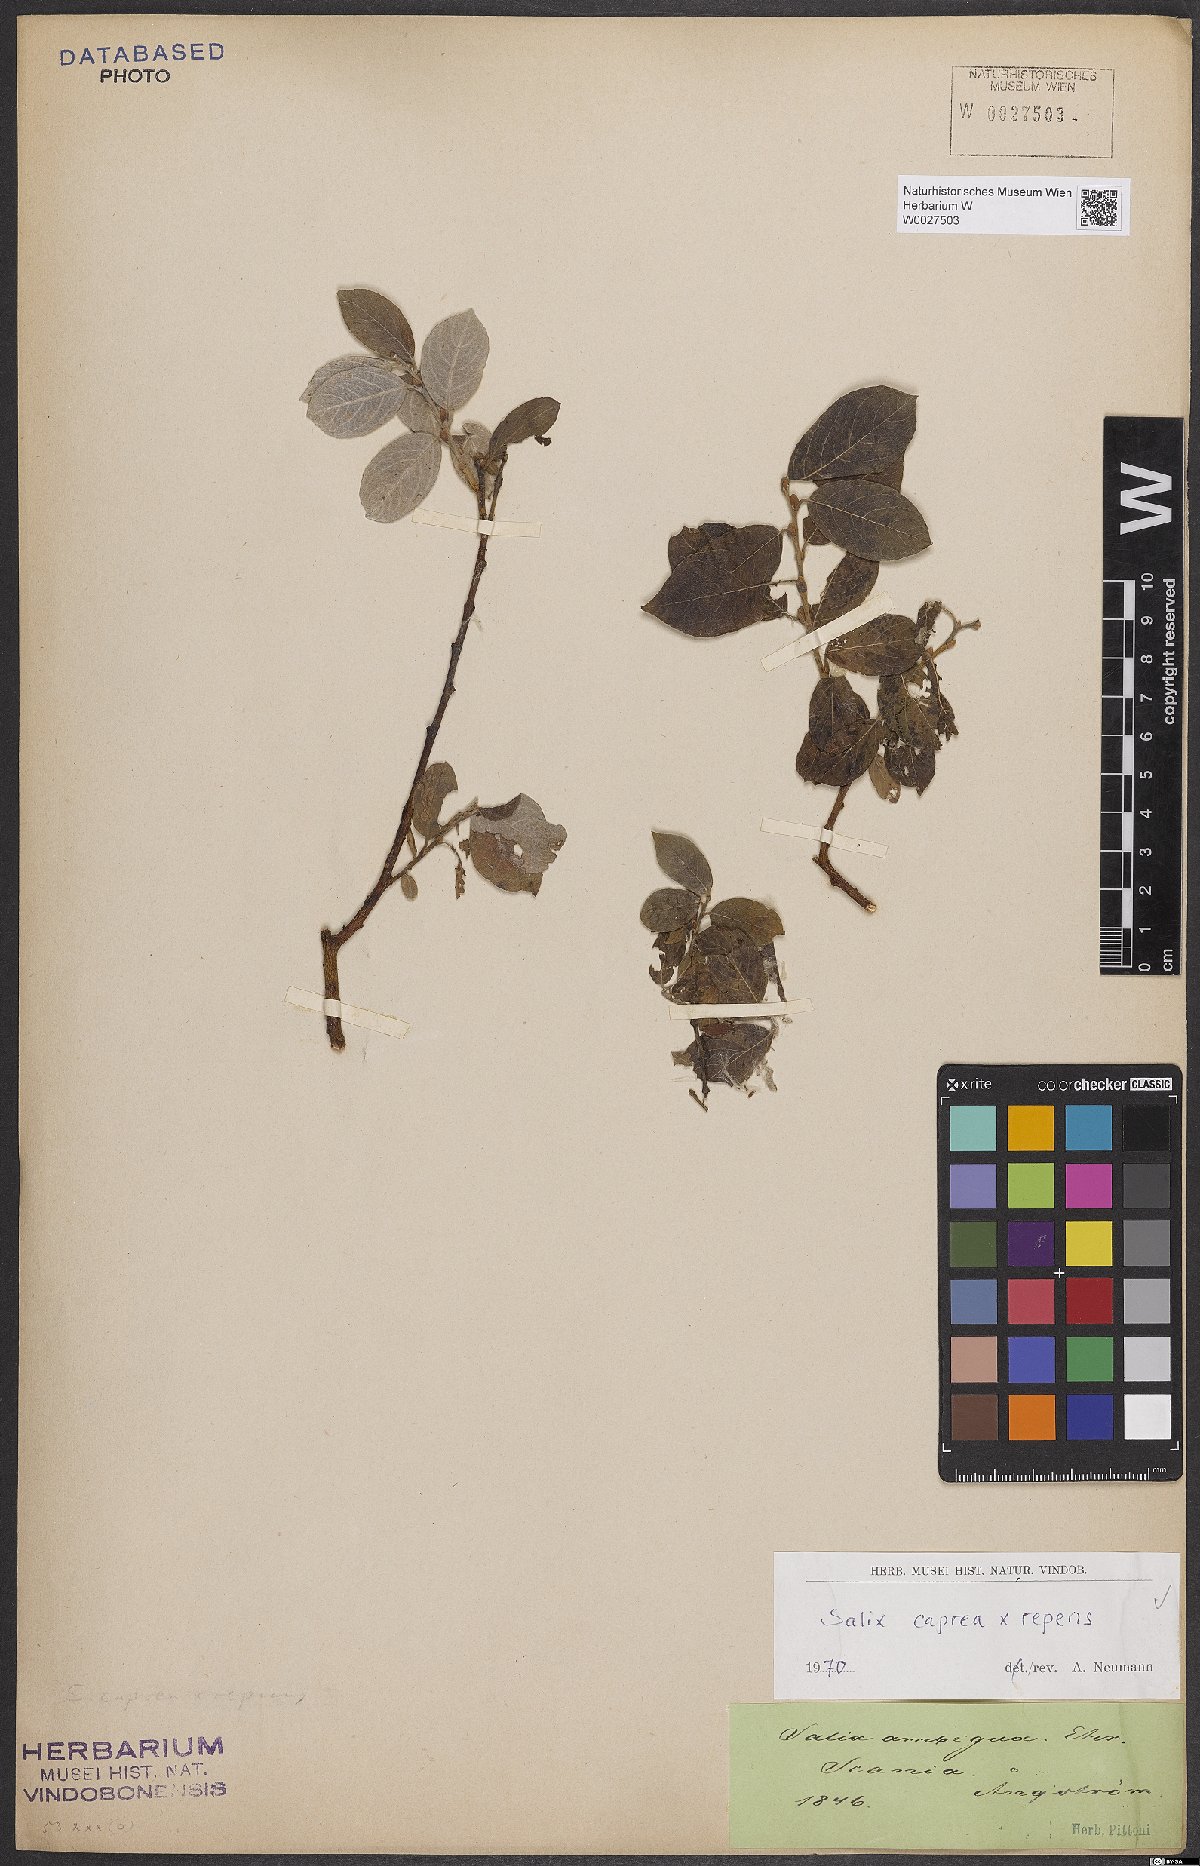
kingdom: Plantae
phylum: Tracheophyta
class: Magnoliopsida
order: Malpighiales
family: Salicaceae
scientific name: Salicaceae
